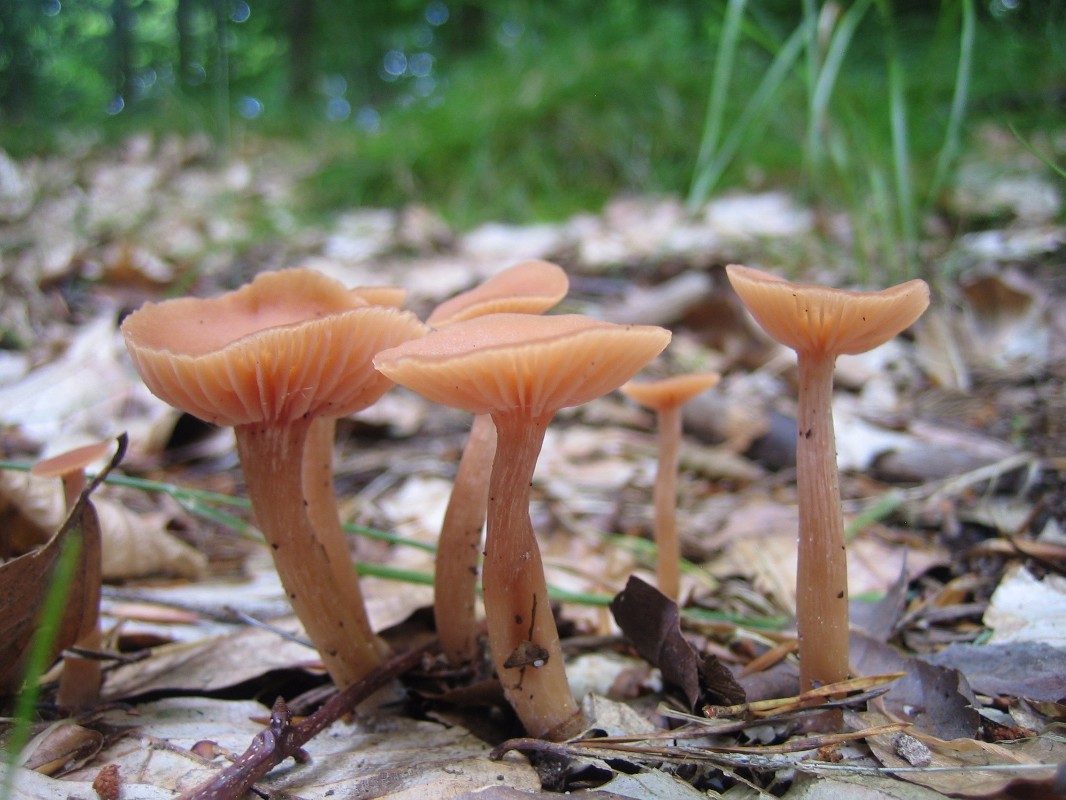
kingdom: Fungi
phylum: Basidiomycota
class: Agaricomycetes
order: Agaricales
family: Hydnangiaceae
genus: Laccaria
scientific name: Laccaria laccata
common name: rød ametysthat
